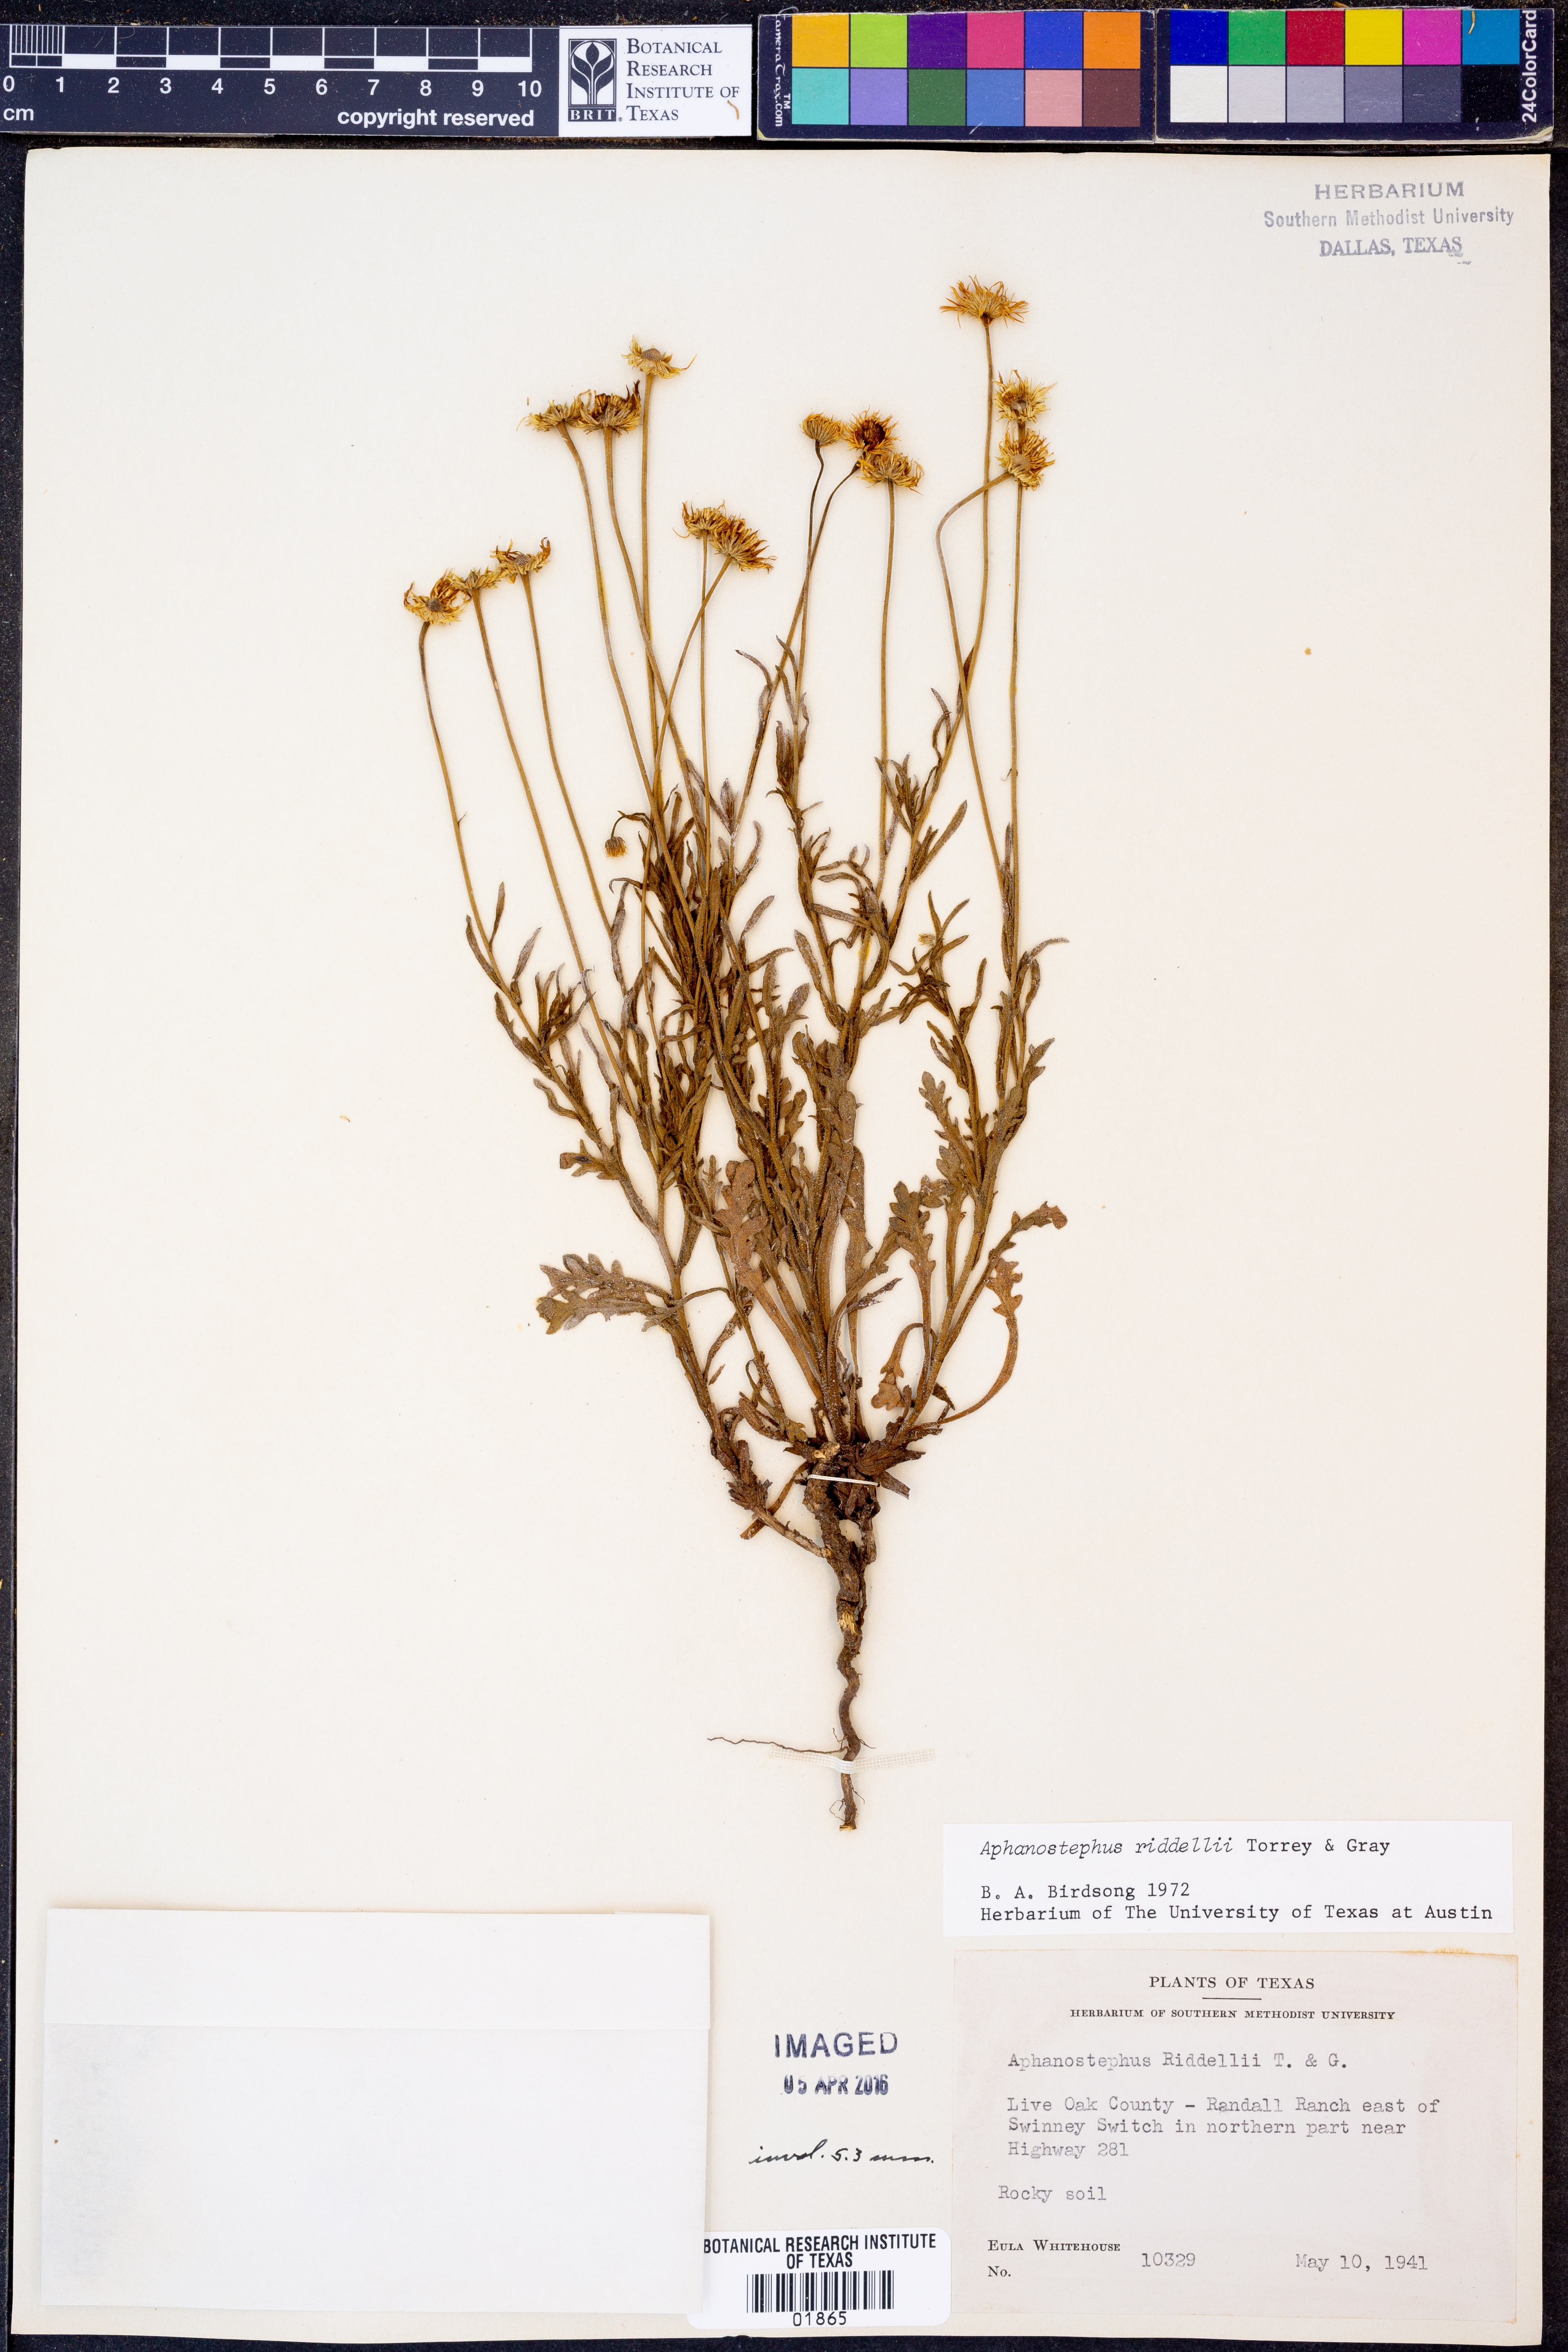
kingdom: Plantae
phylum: Tracheophyta
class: Magnoliopsida
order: Asterales
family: Asteraceae
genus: Aphanostephus
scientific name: Aphanostephus riddellii
